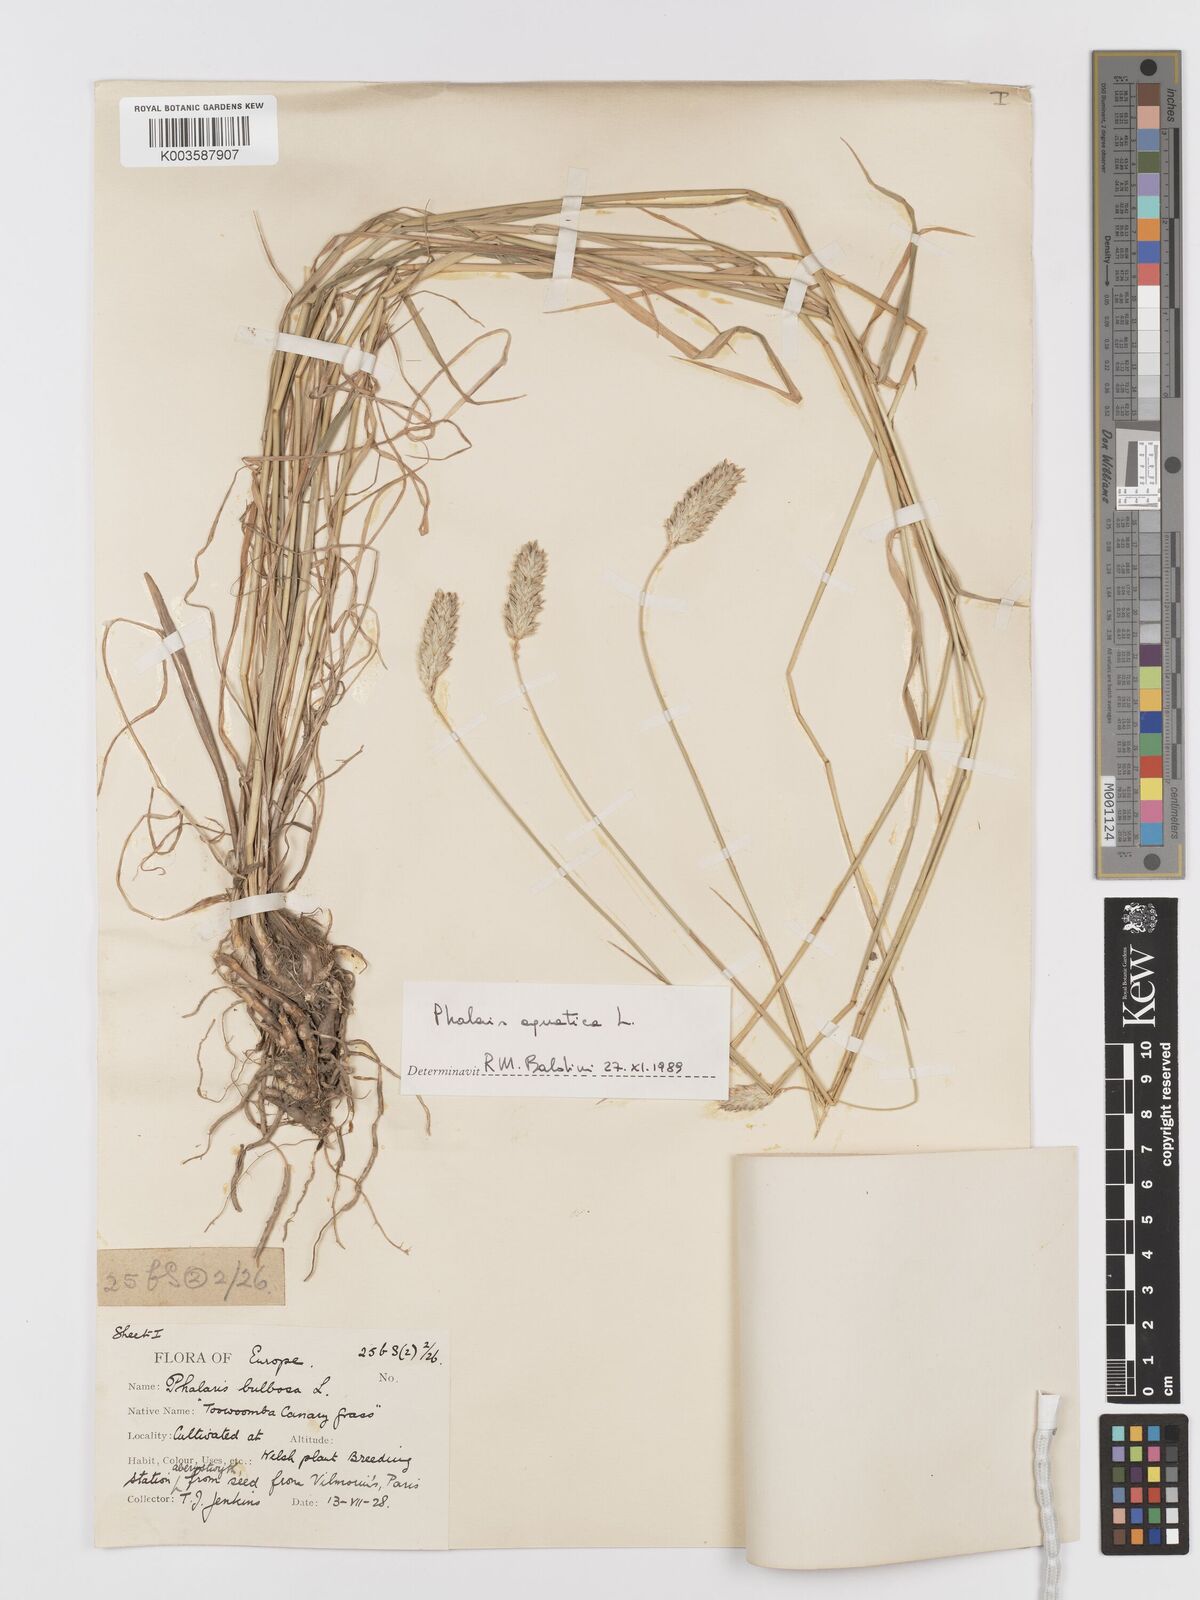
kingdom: Plantae
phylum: Tracheophyta
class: Liliopsida
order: Poales
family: Poaceae
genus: Phalaris
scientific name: Phalaris
